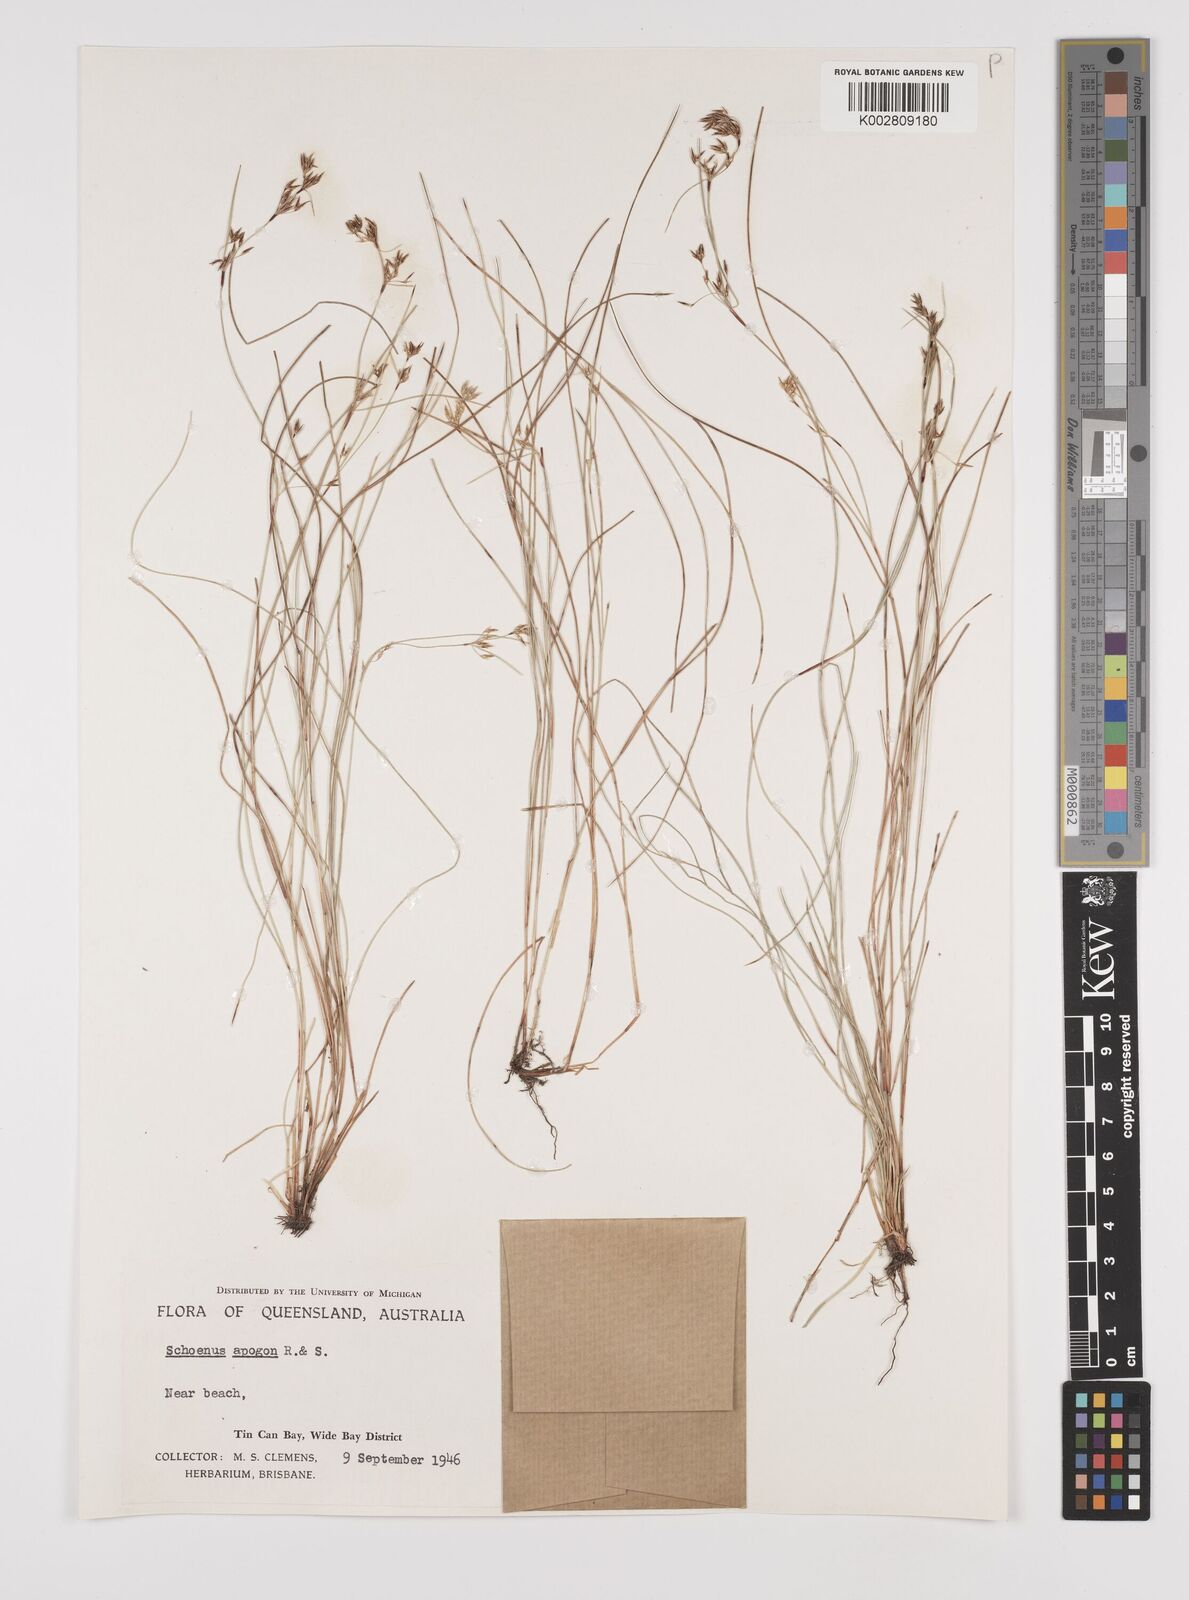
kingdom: Plantae
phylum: Tracheophyta
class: Liliopsida
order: Poales
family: Cyperaceae
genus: Schoenus
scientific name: Schoenus apogon
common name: Smooth bogrush
